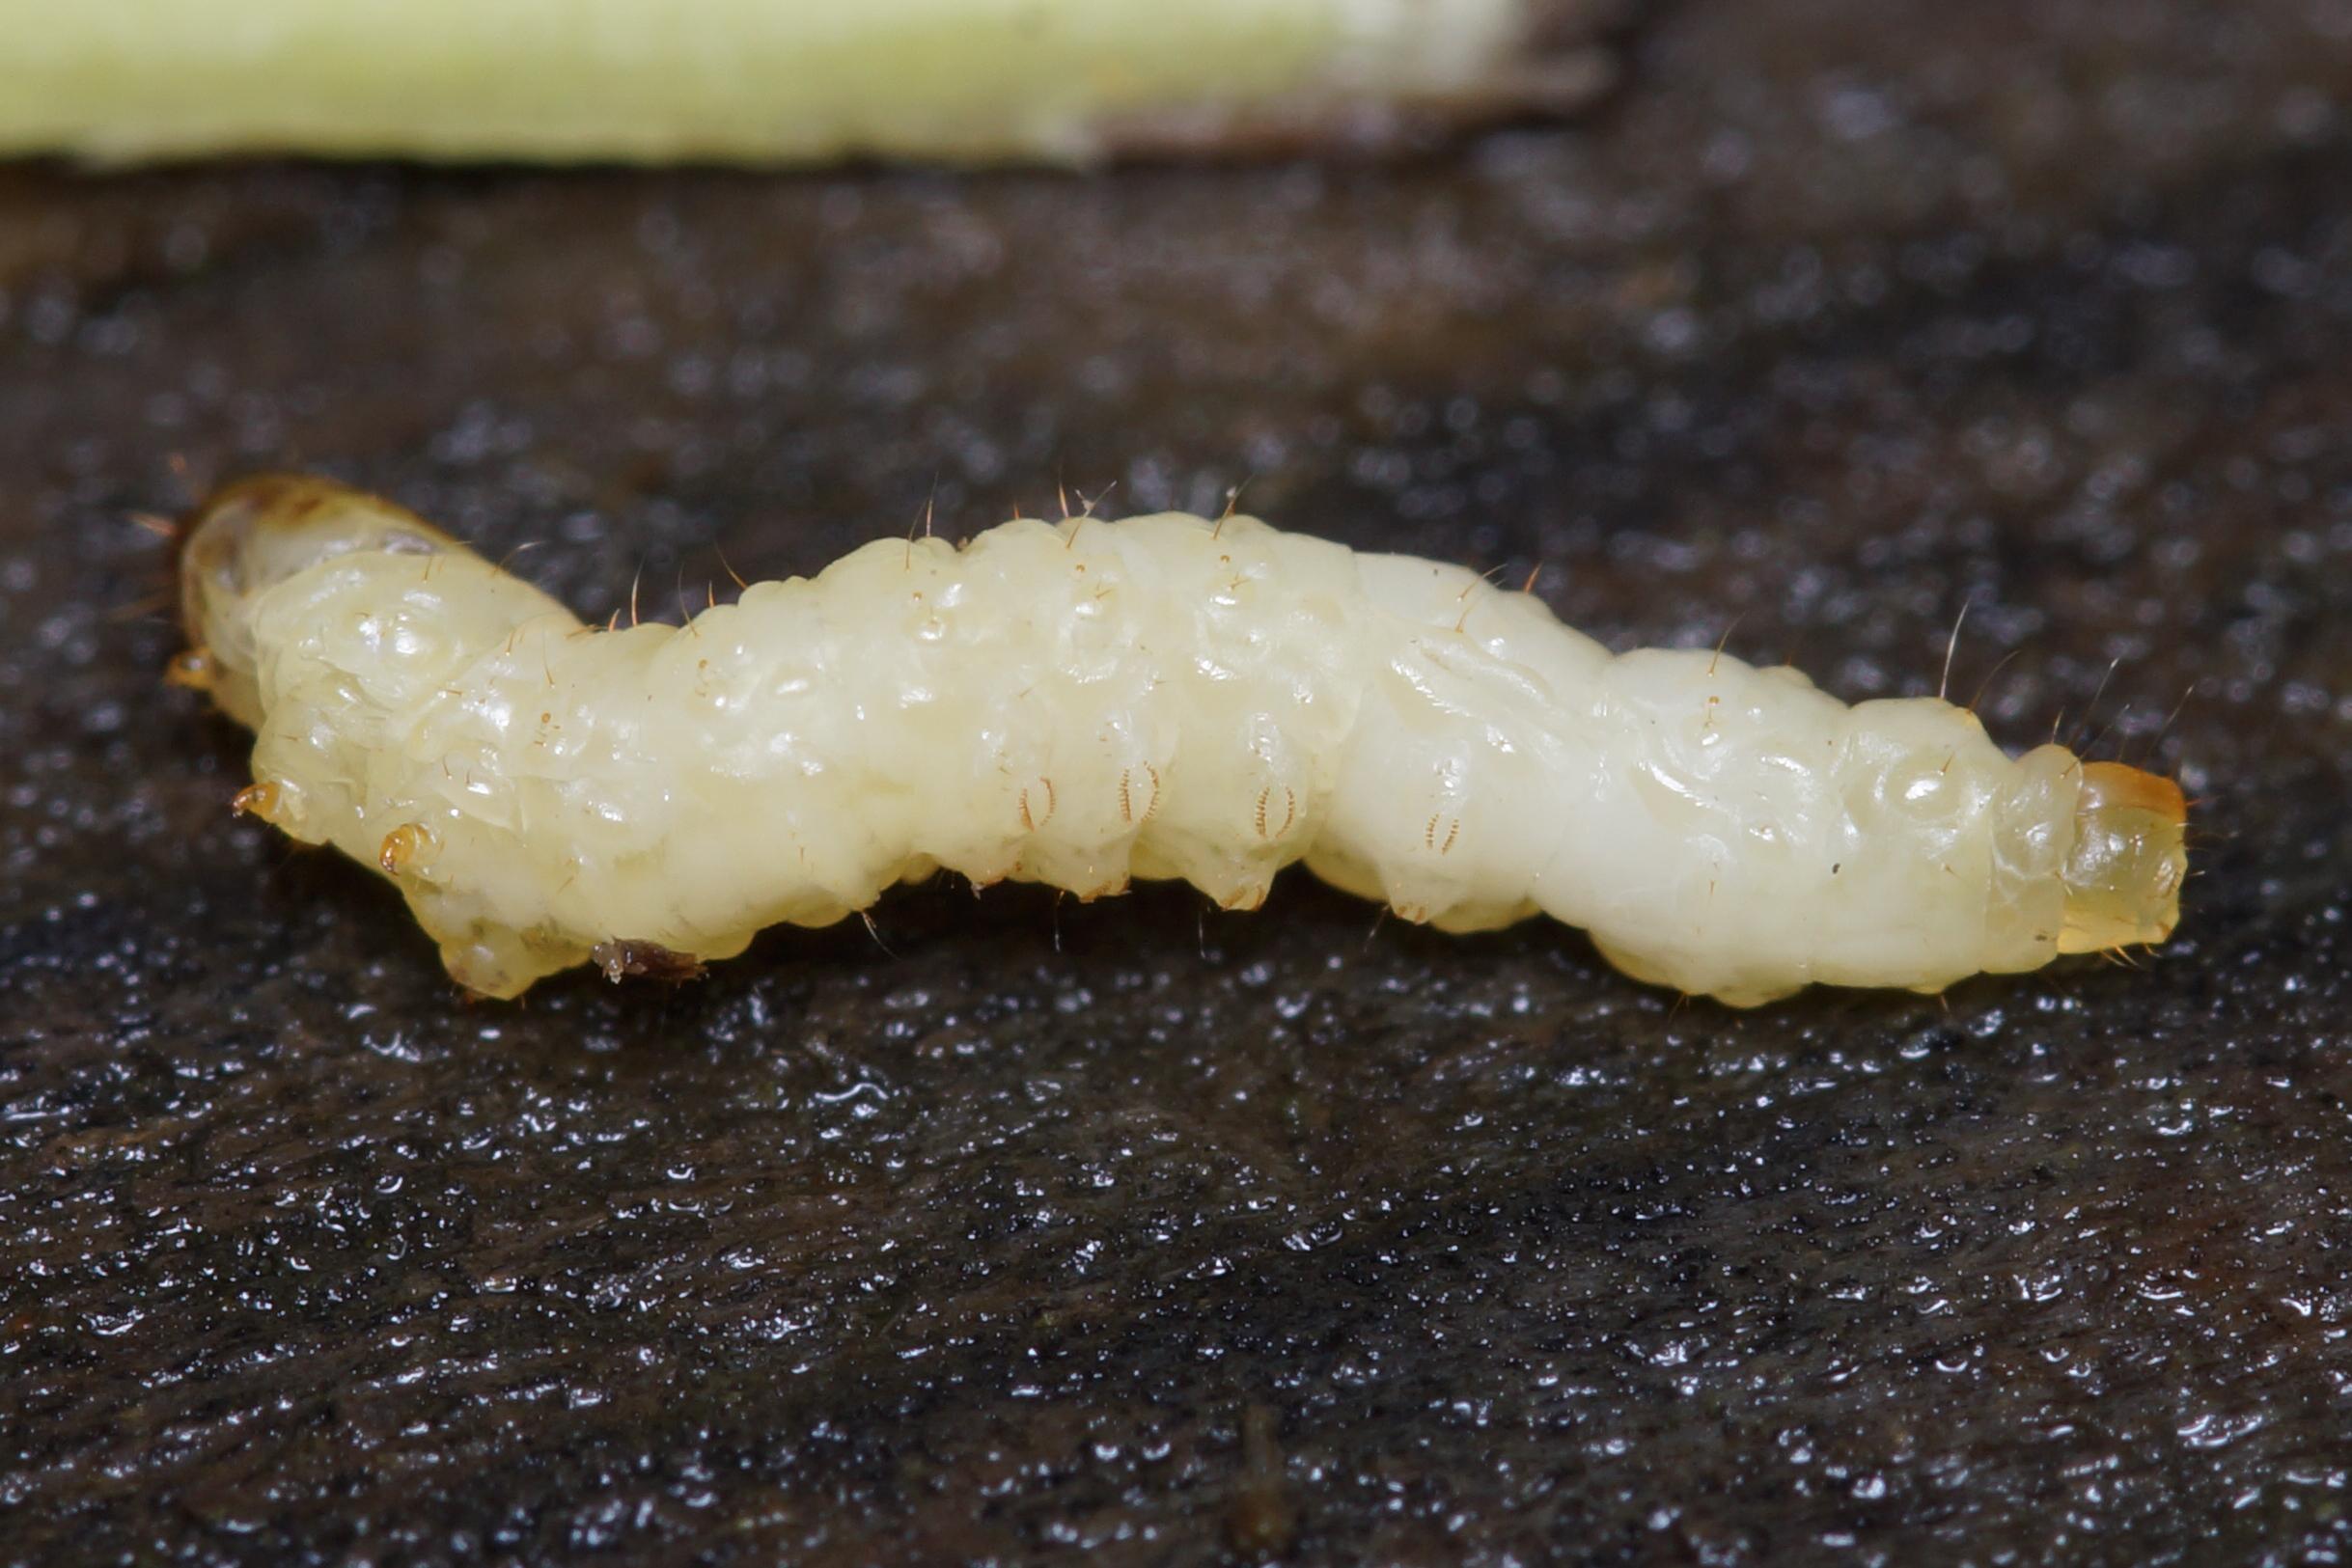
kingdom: Animalia
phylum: Arthropoda
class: Insecta
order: Lepidoptera
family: Sesiidae
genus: Synanthedon
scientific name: Synanthedon tipuliformis
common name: Ribsglassværmer
